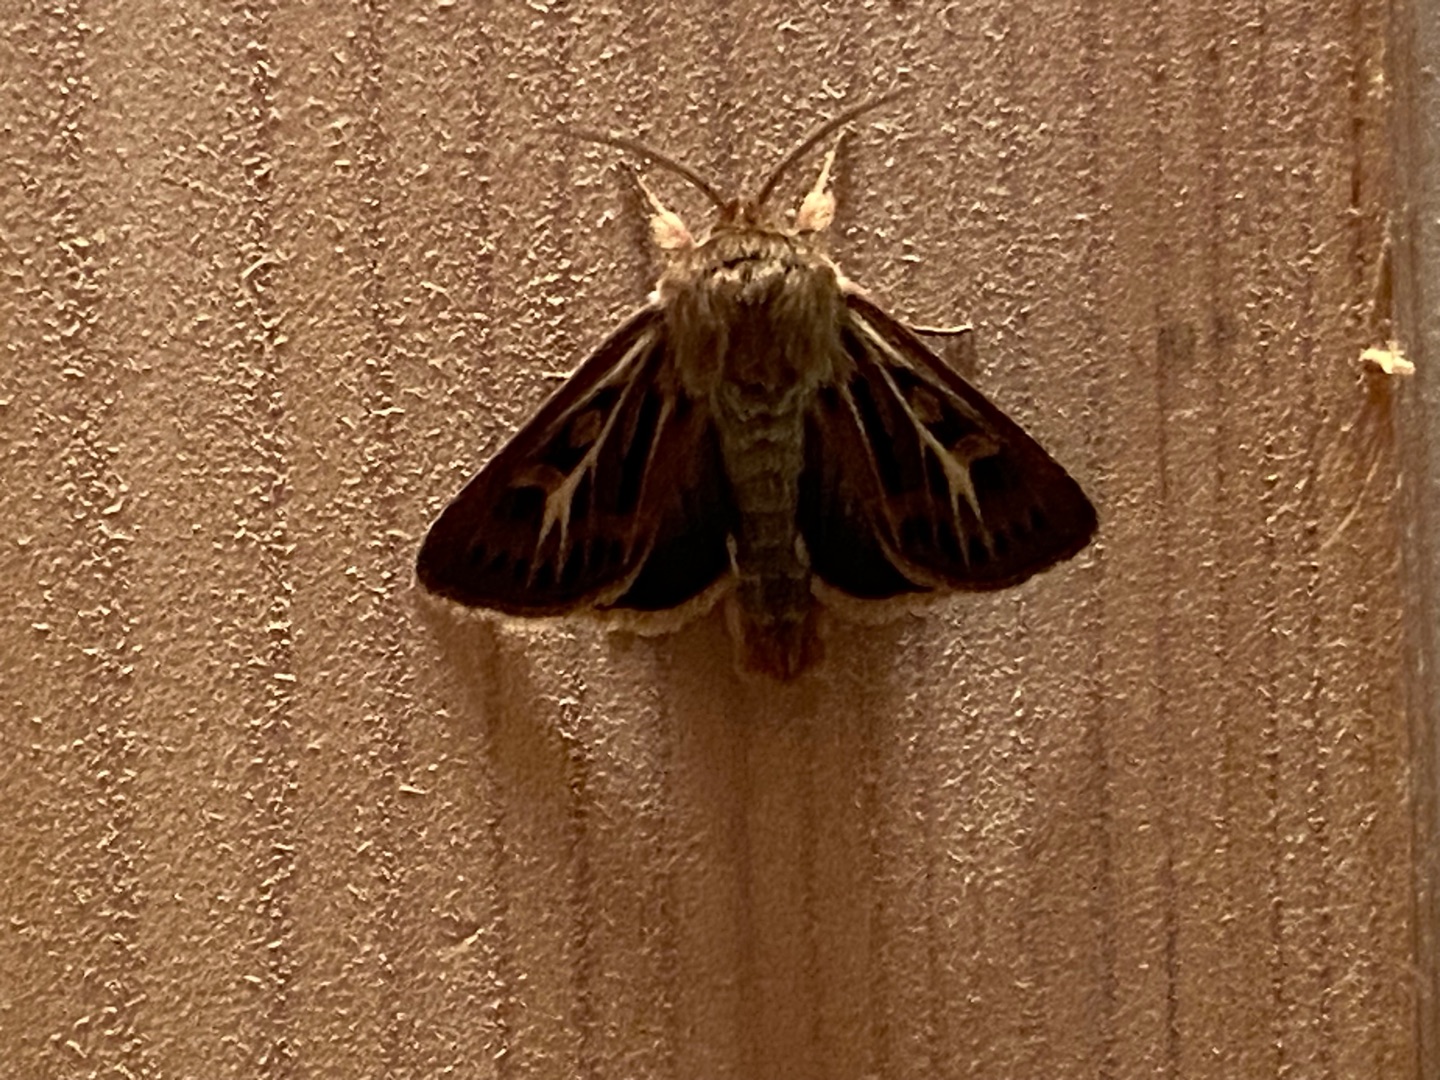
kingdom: Animalia
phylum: Arthropoda
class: Insecta
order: Lepidoptera
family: Noctuidae
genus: Cerapteryx
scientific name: Cerapteryx graminis
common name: Mosebunkeugle
